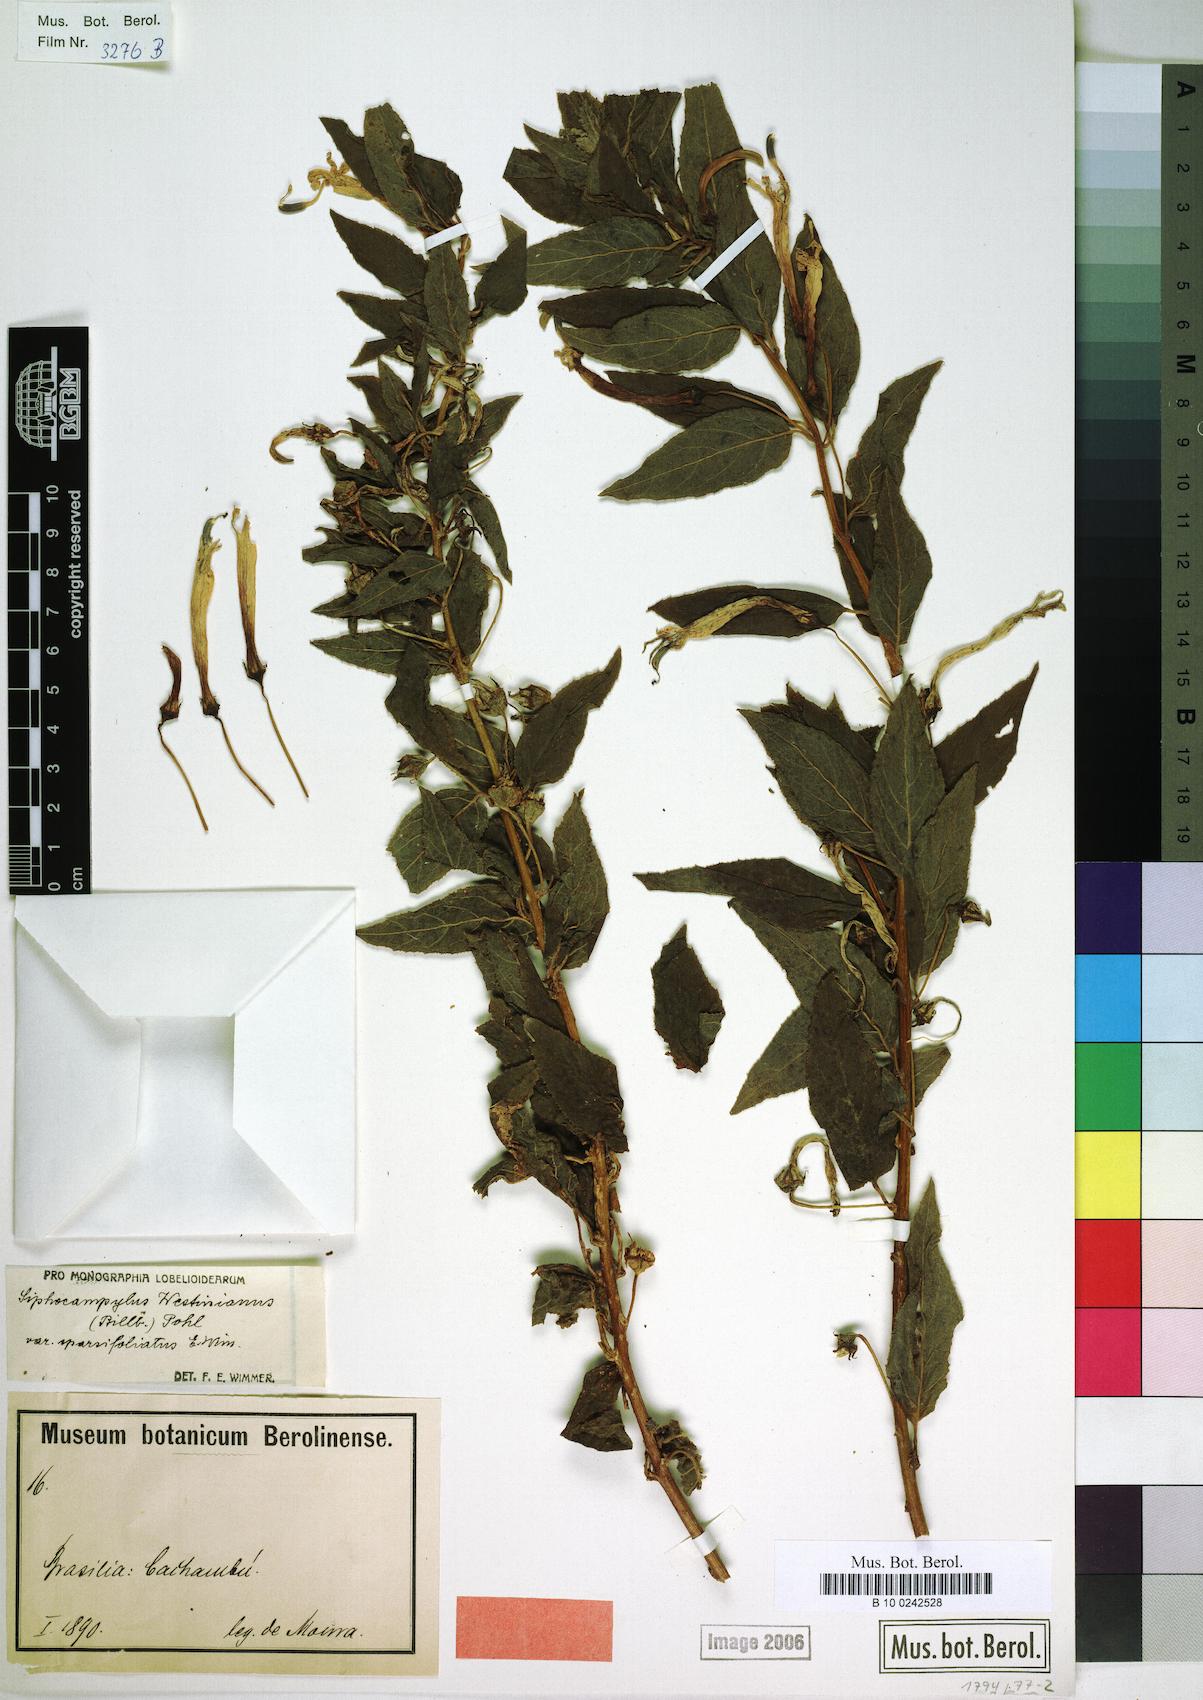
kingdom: Plantae
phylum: Tracheophyta
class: Magnoliopsida
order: Asterales
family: Campanulaceae
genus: Siphocampylus
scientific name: Siphocampylus westinianus
